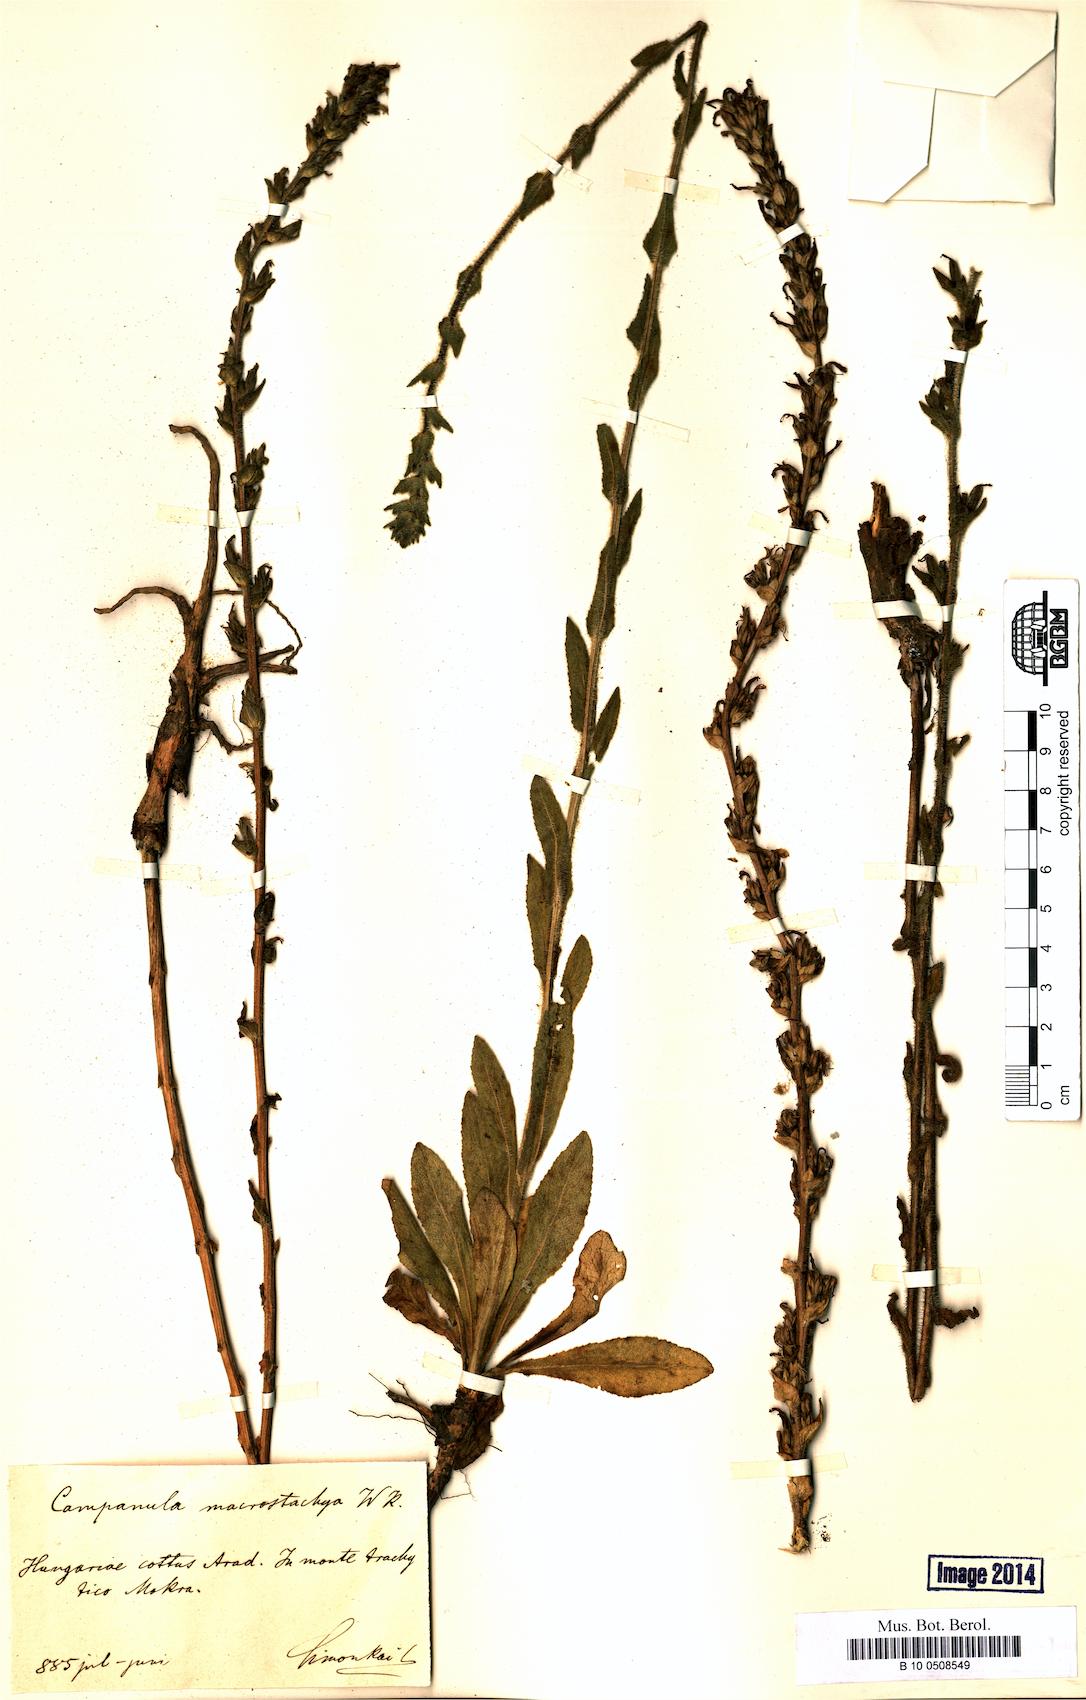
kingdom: Plantae
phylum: Tracheophyta
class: Magnoliopsida
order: Asterales
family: Campanulaceae
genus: Campanula
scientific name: Campanula macrostachya
